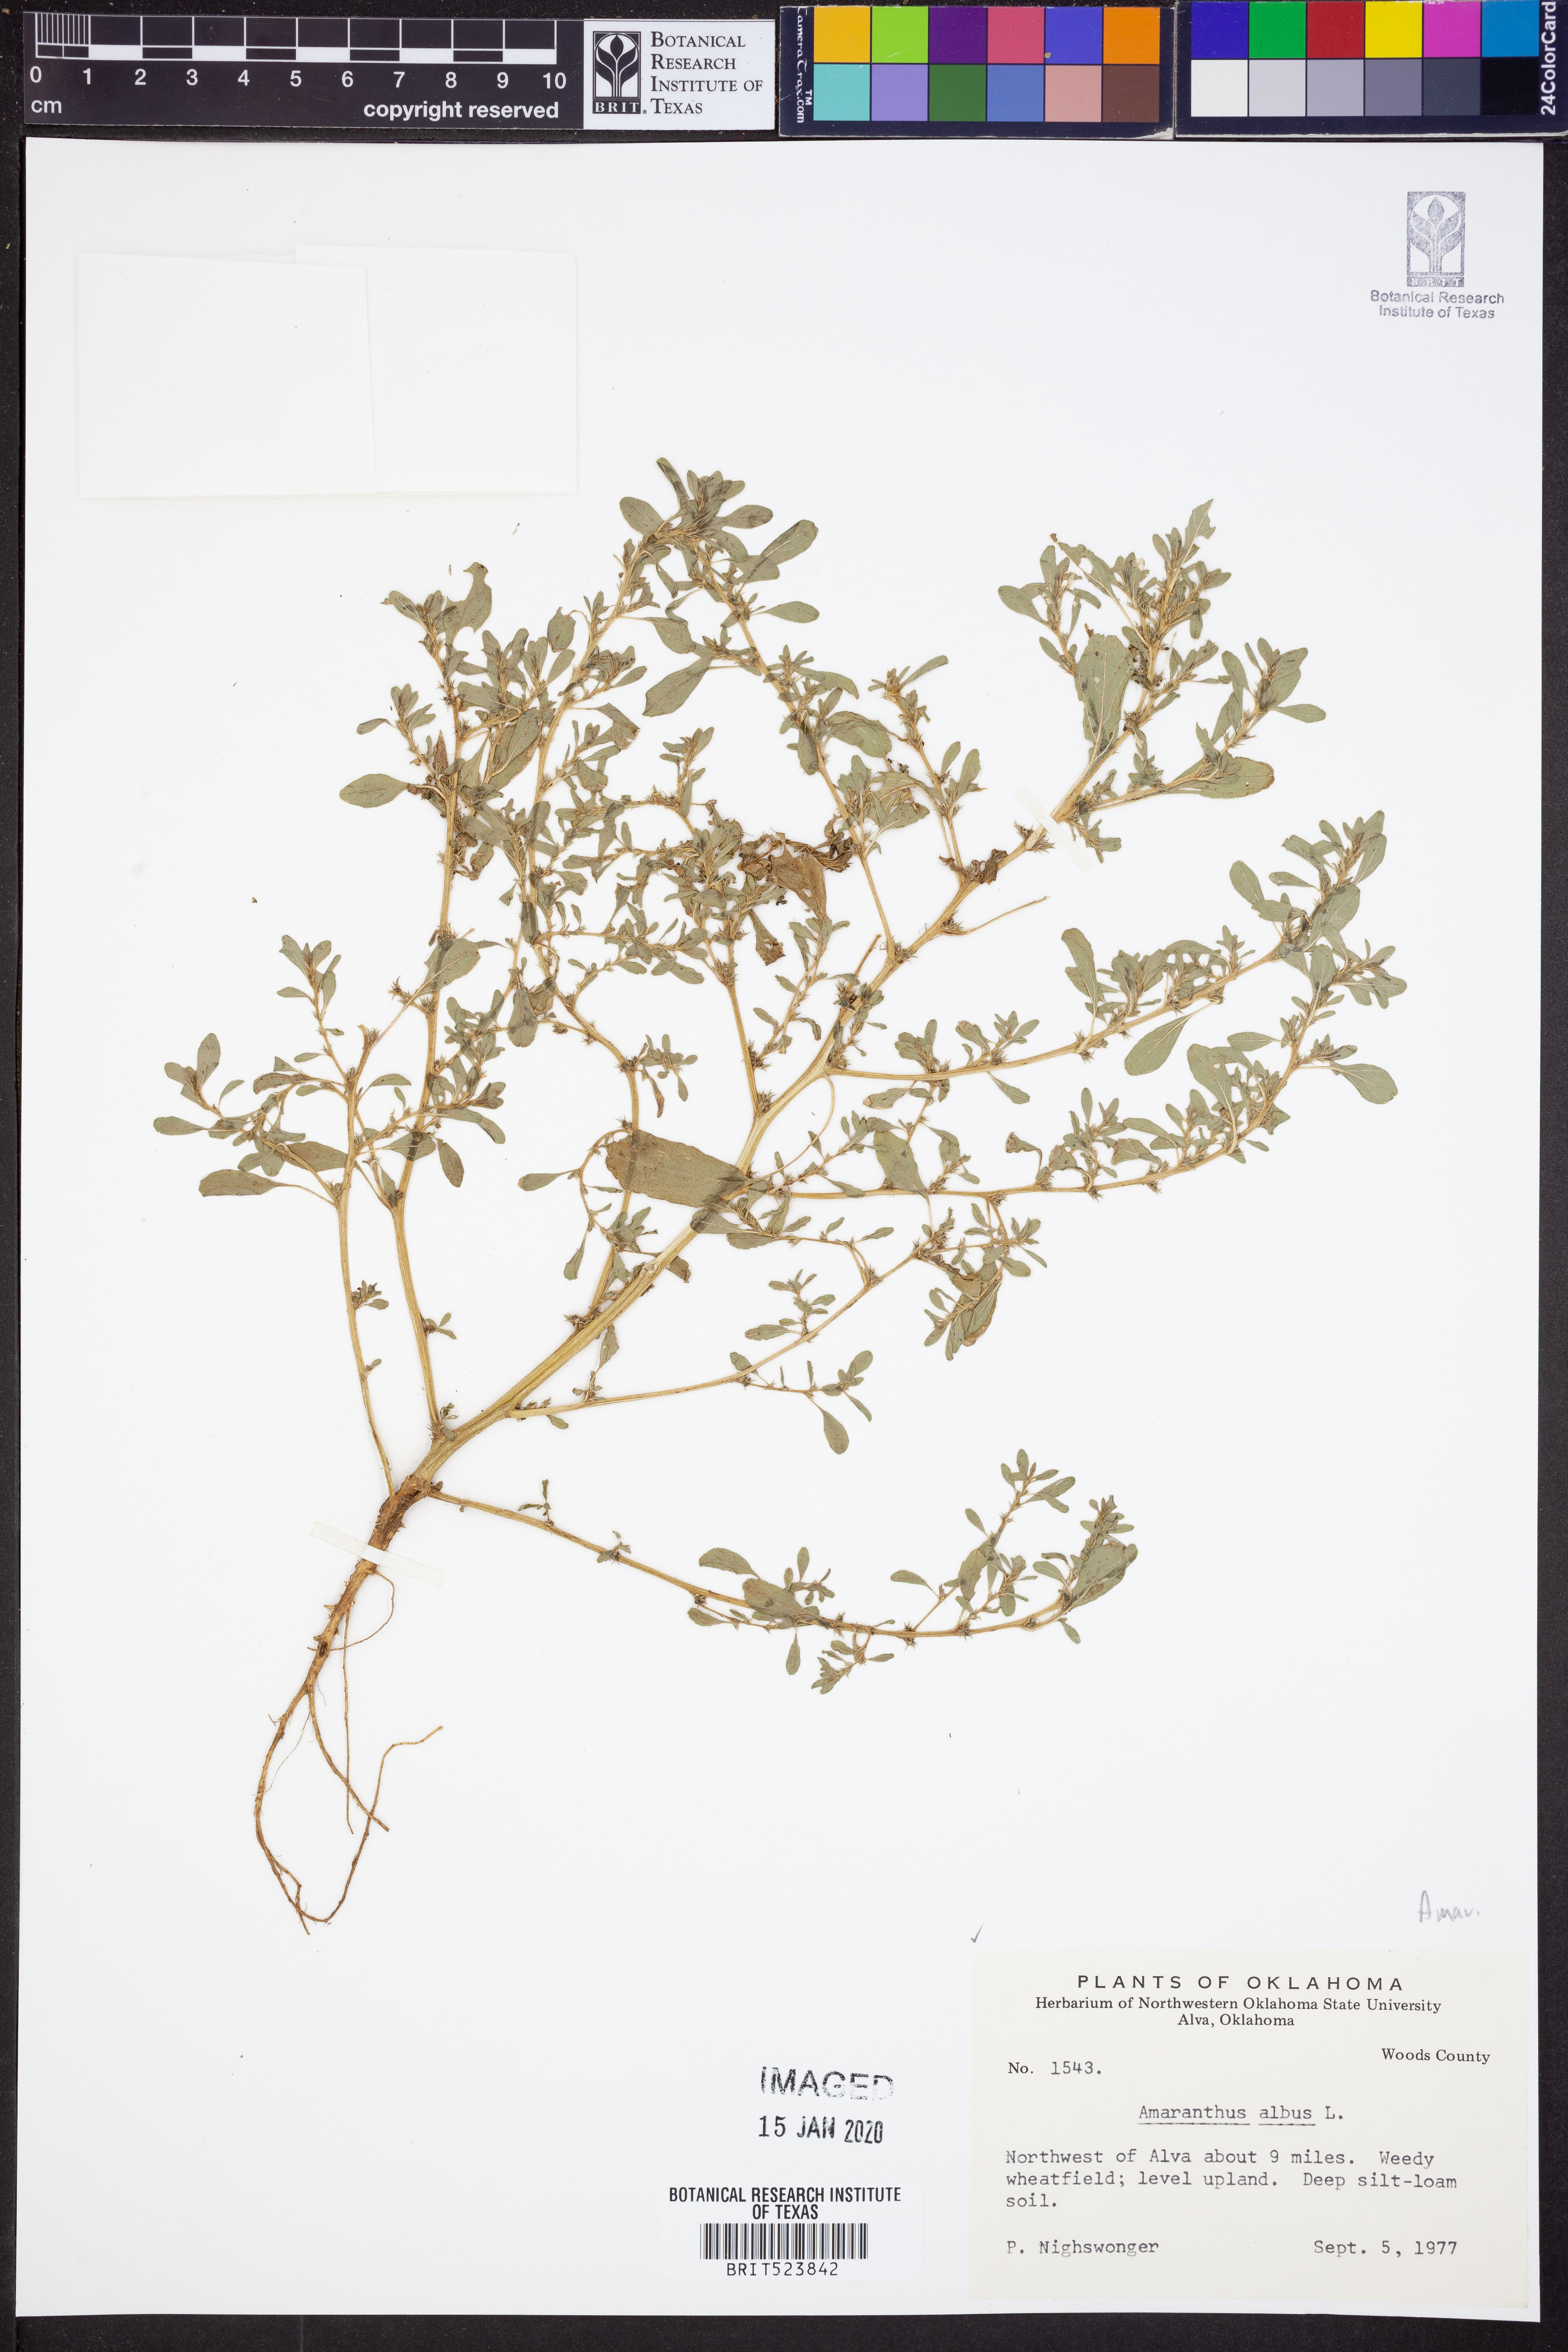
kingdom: Plantae
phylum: Tracheophyta
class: Magnoliopsida
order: Caryophyllales
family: Amaranthaceae
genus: Amaranthus
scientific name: Amaranthus albus
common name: White pigweed
